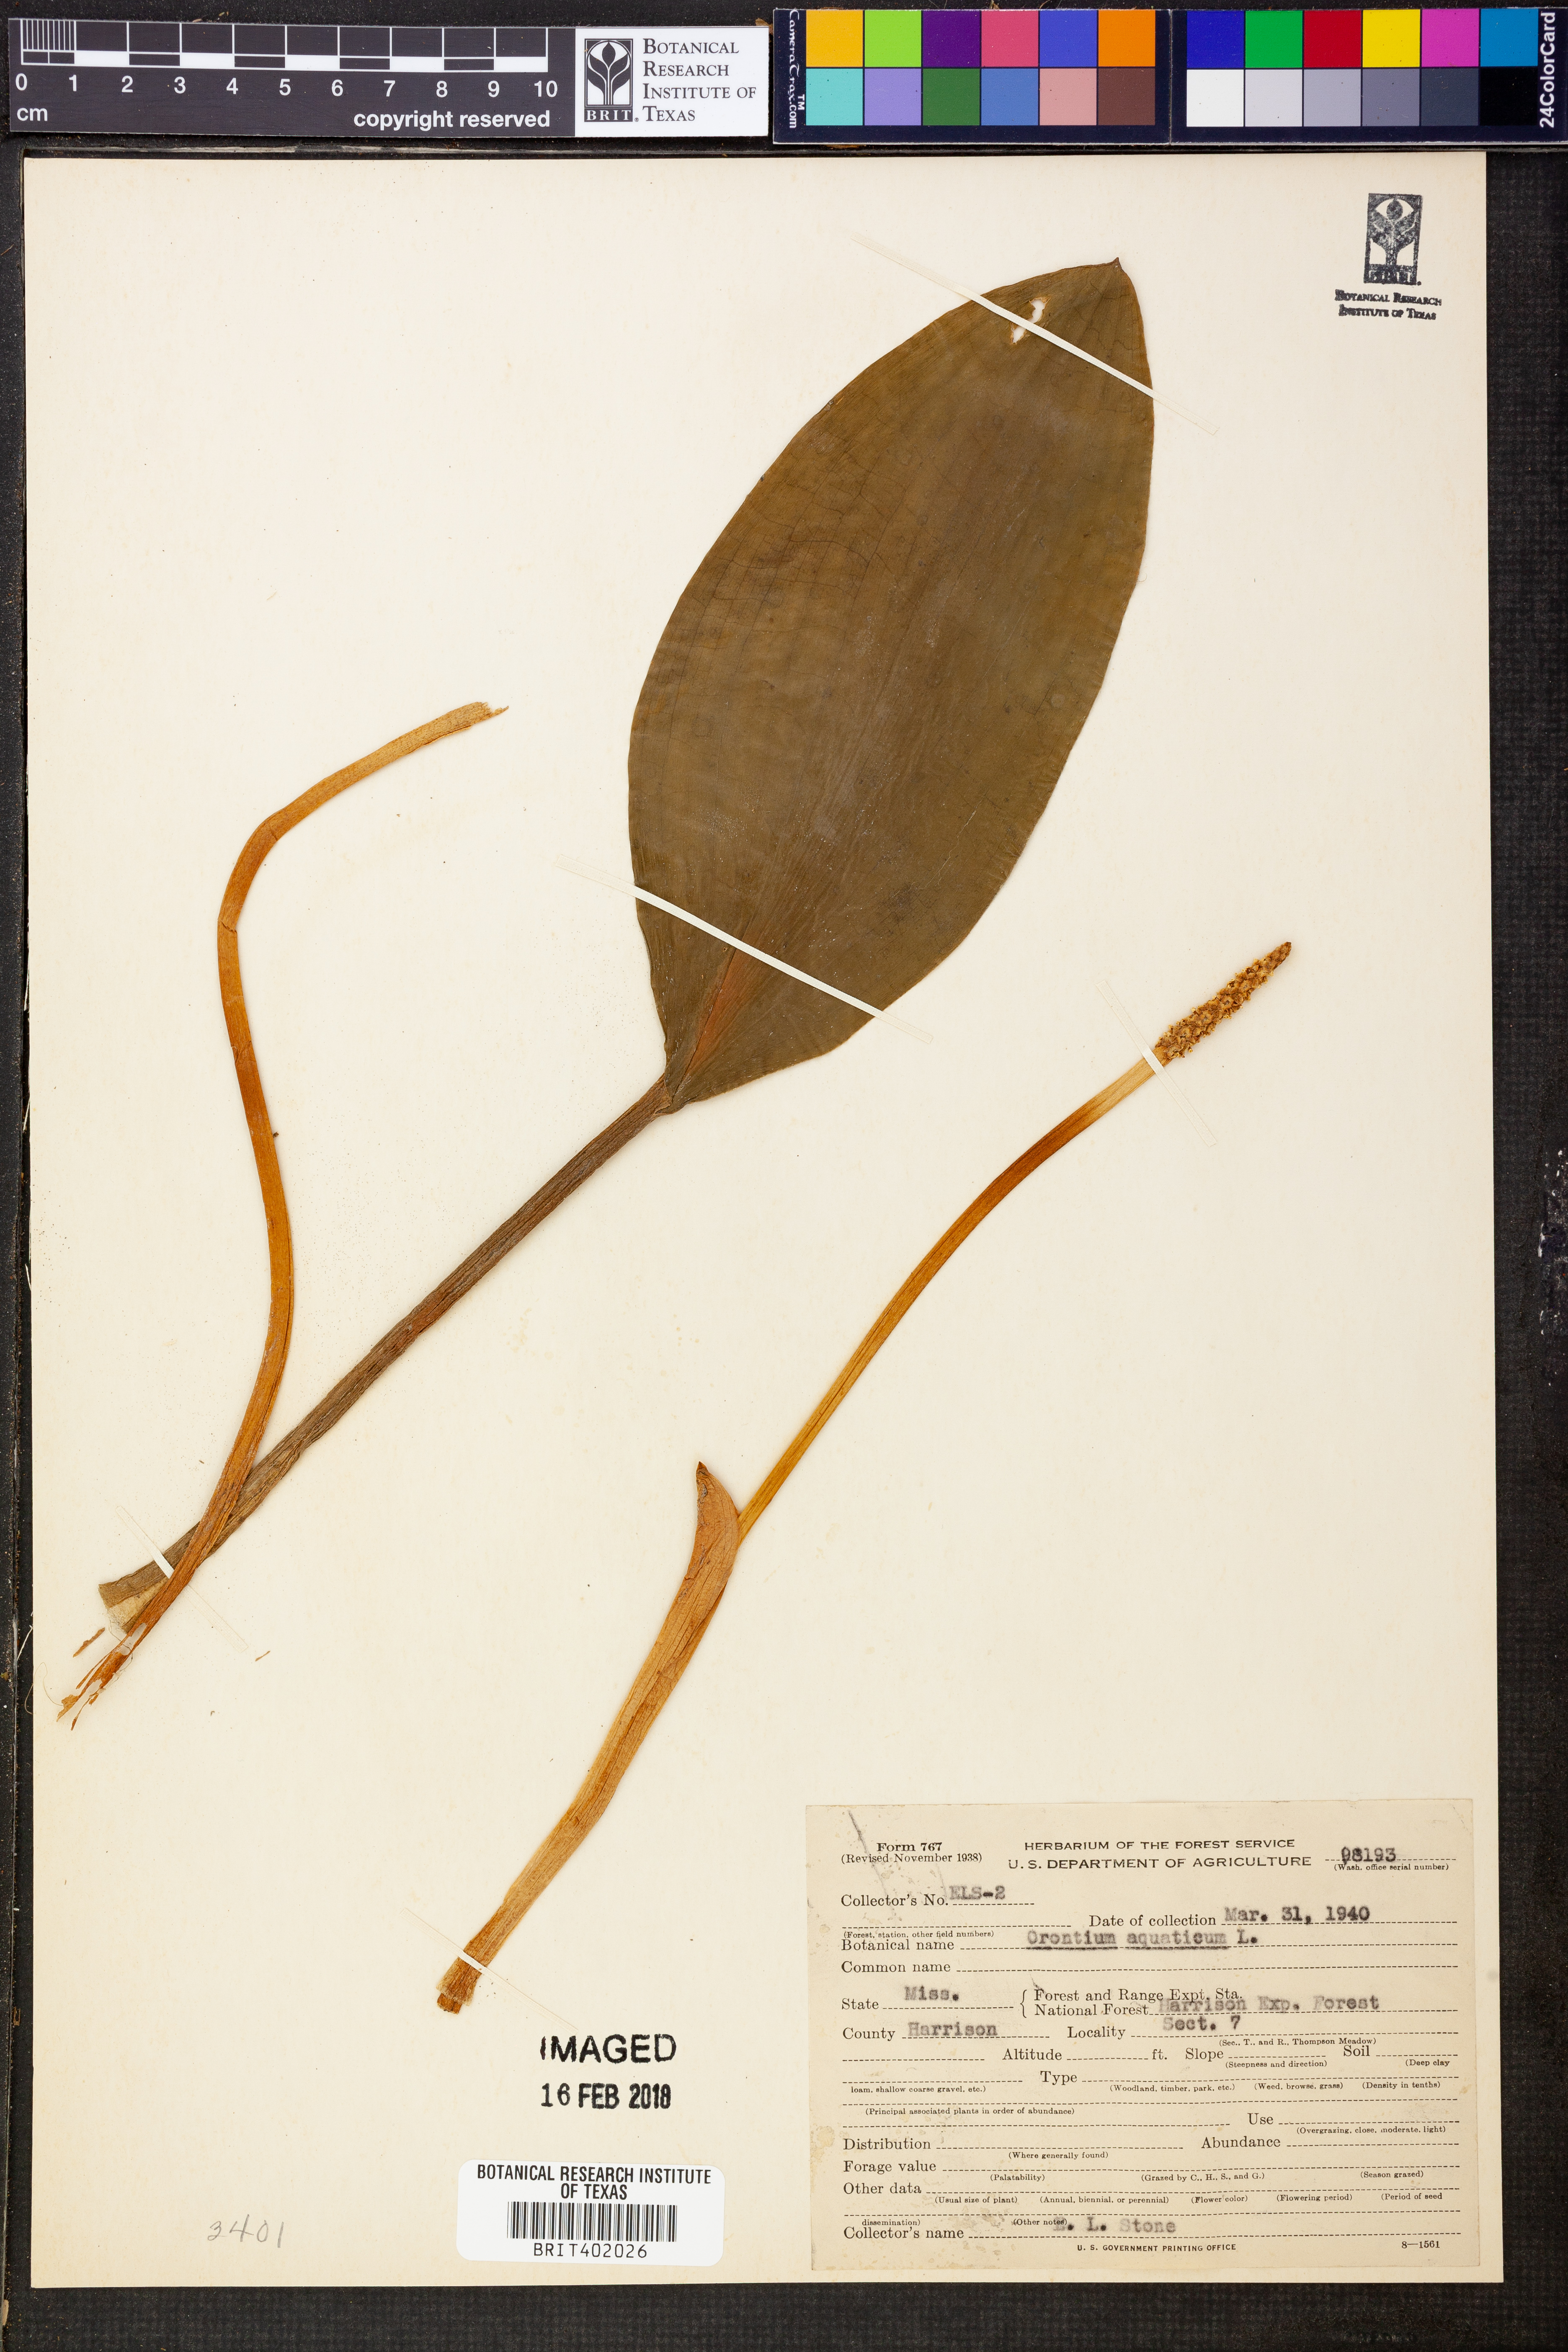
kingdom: Plantae
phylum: Tracheophyta
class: Liliopsida
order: Alismatales
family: Araceae
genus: Orontium
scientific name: Orontium aquaticum
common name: Golden-club
